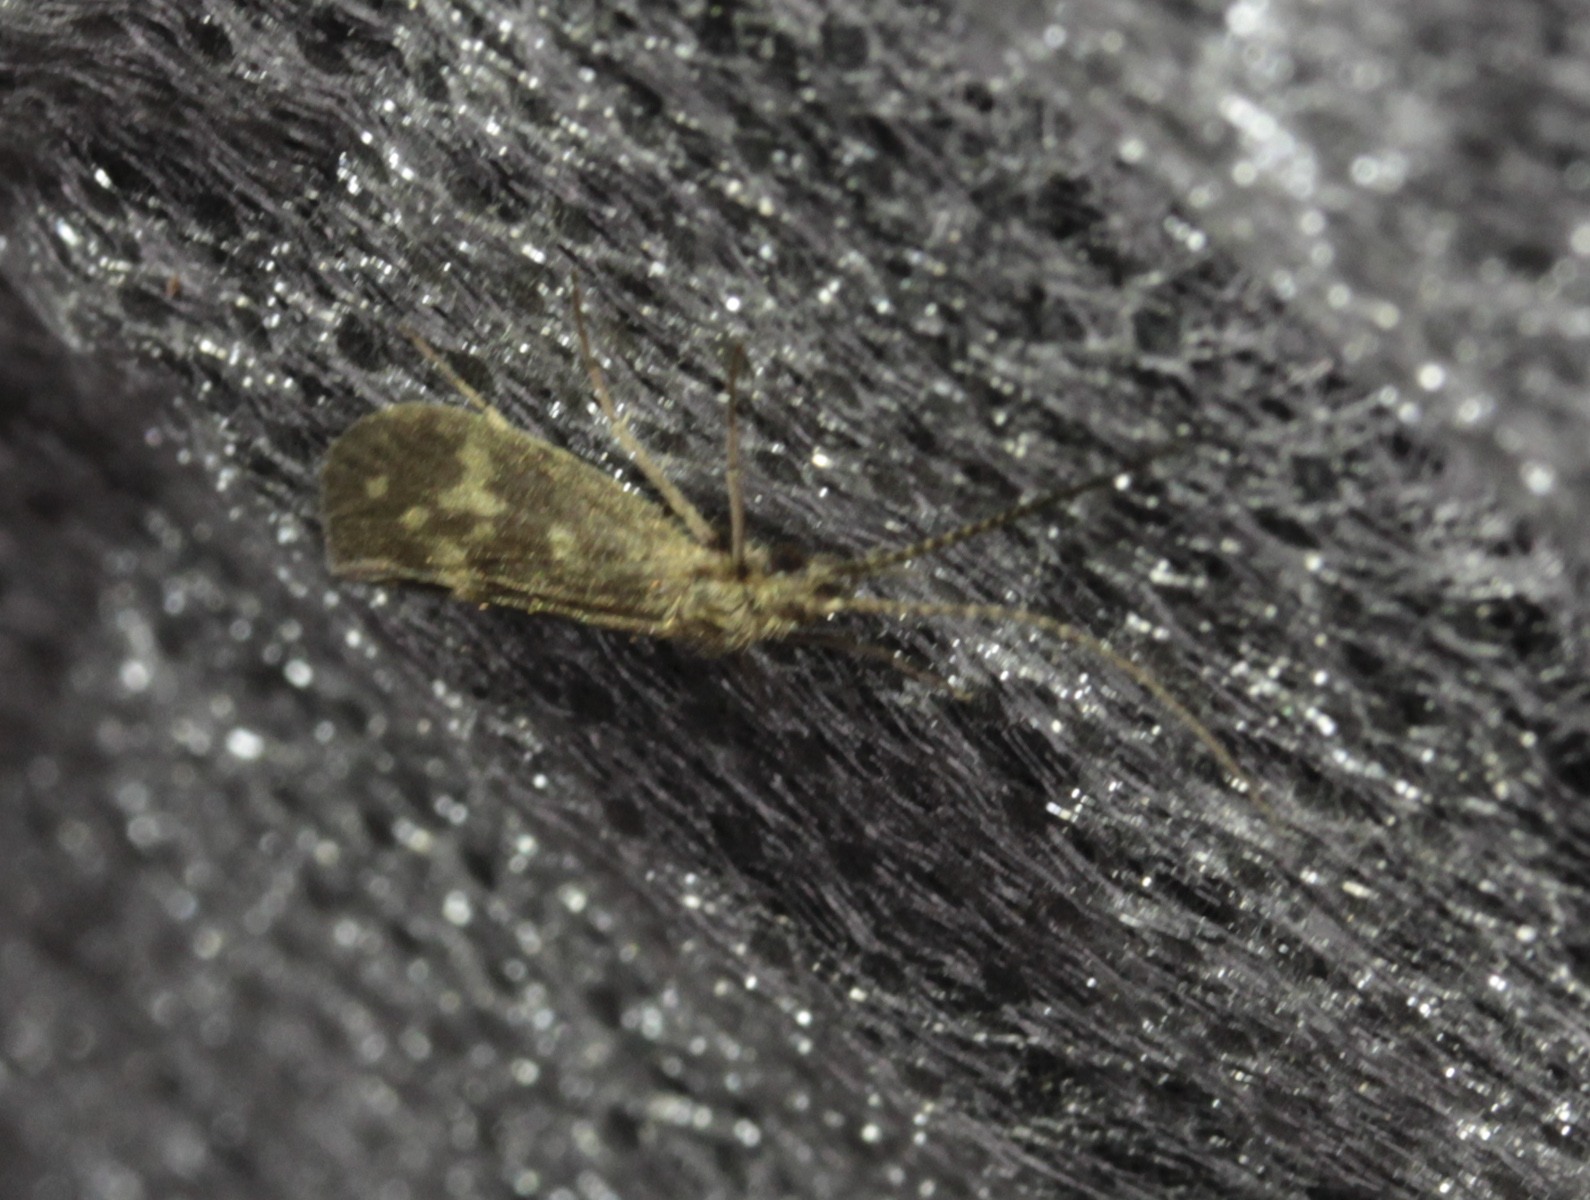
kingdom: Animalia
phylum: Arthropoda
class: Insecta
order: Trichoptera
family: Molannidae
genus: Molannodes
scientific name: Molannodes tinctus
